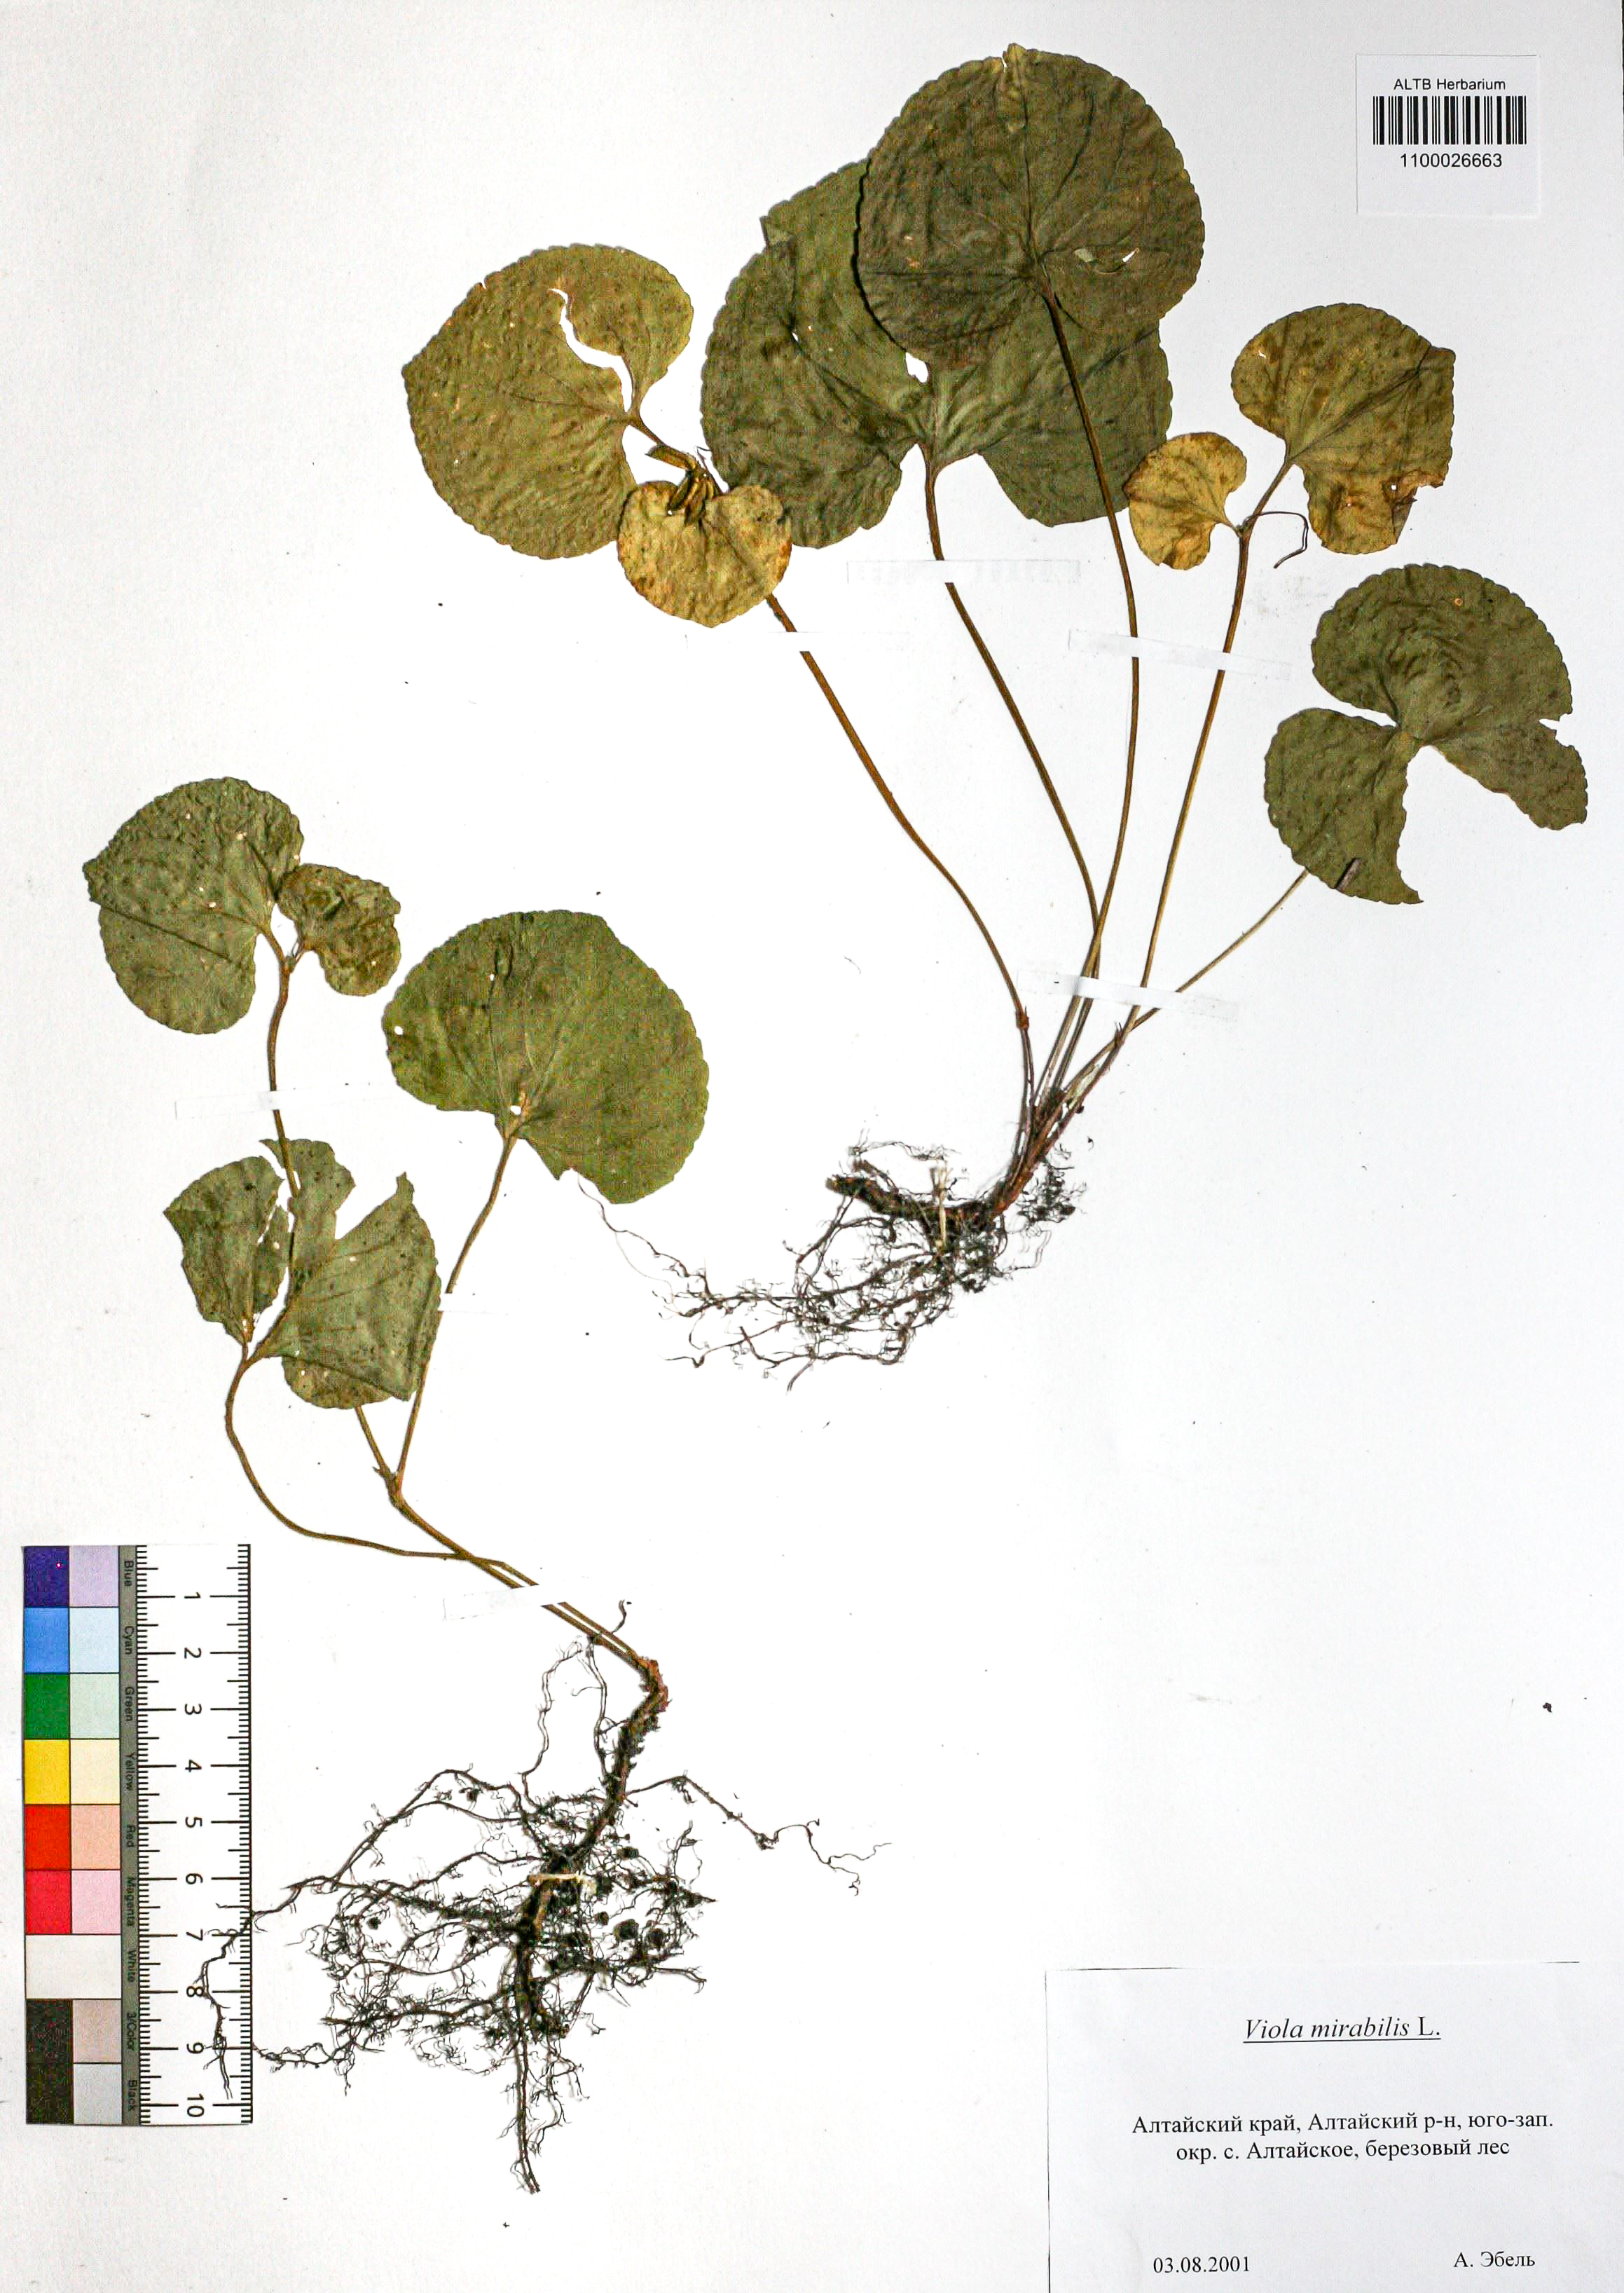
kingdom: Plantae
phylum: Tracheophyta
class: Magnoliopsida
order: Malpighiales
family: Violaceae
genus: Viola
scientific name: Viola mirabilis
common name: Wonder violet
